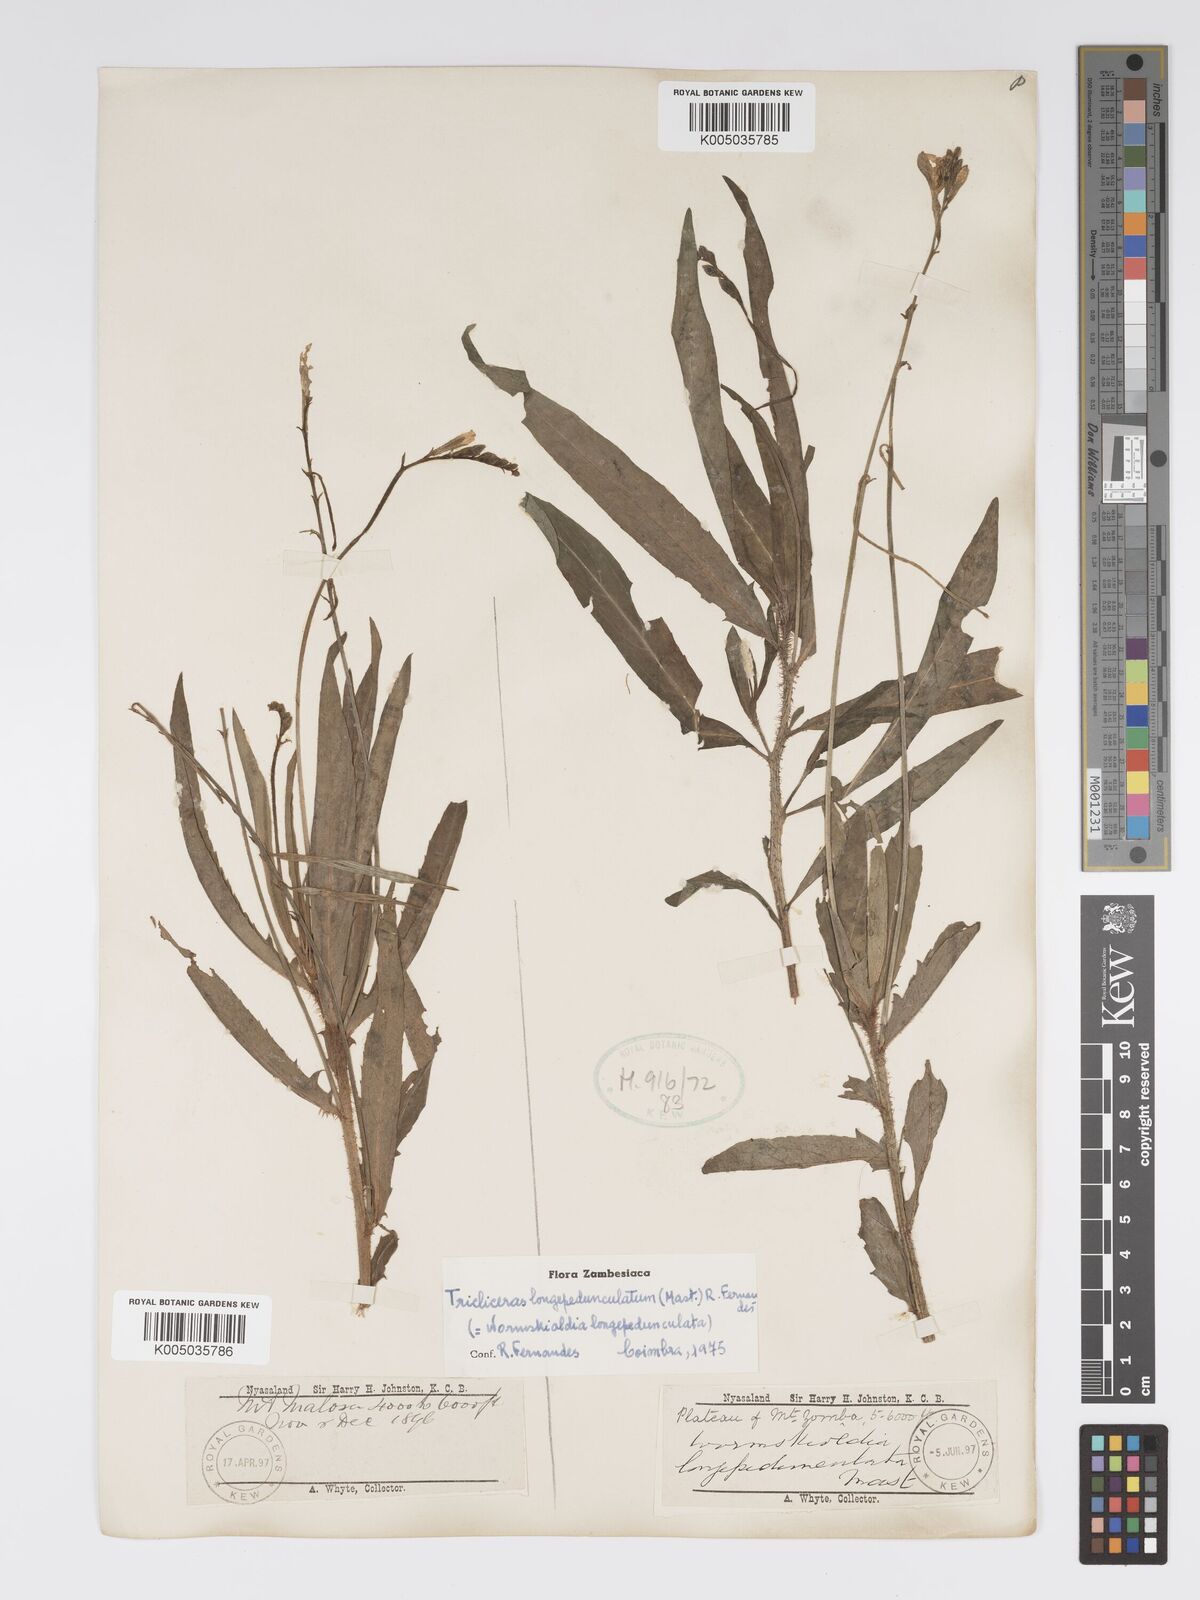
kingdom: Plantae
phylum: Tracheophyta
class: Magnoliopsida
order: Malpighiales
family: Turneraceae
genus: Tricliceras
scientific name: Tricliceras longepedunculatum
